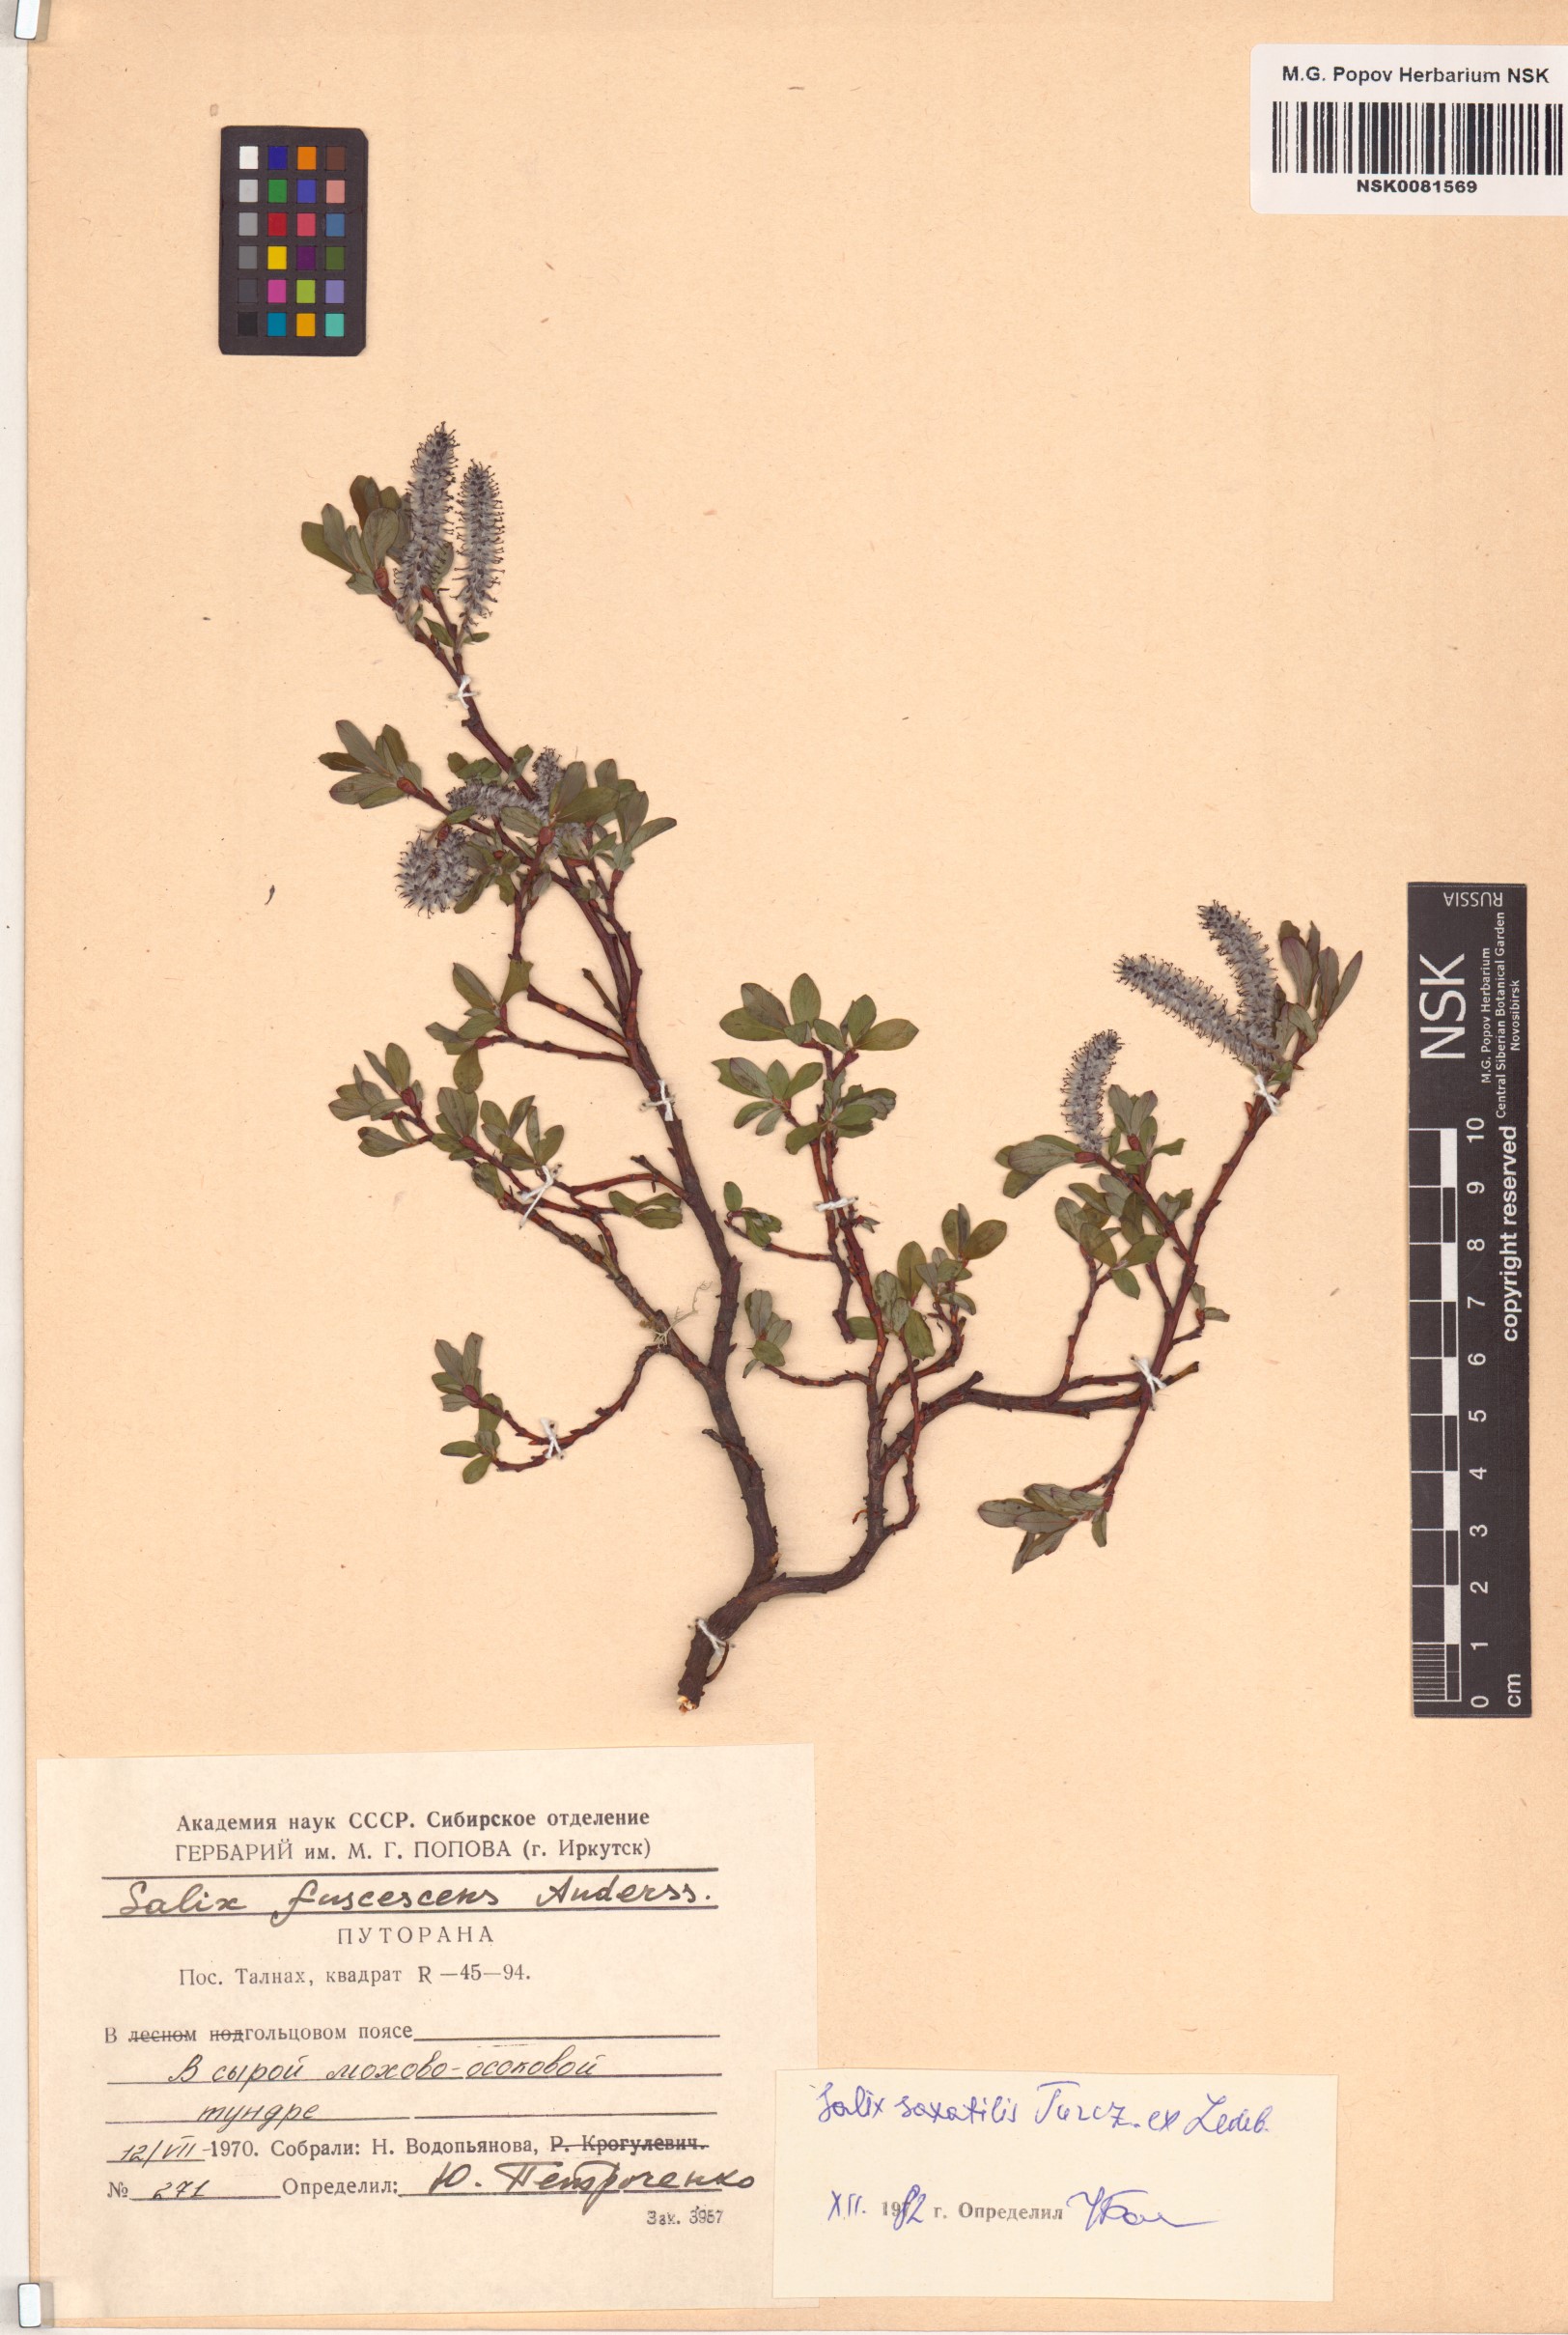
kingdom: Plantae
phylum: Tracheophyta
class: Magnoliopsida
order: Malpighiales
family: Salicaceae
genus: Salix
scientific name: Salix saxatilis
